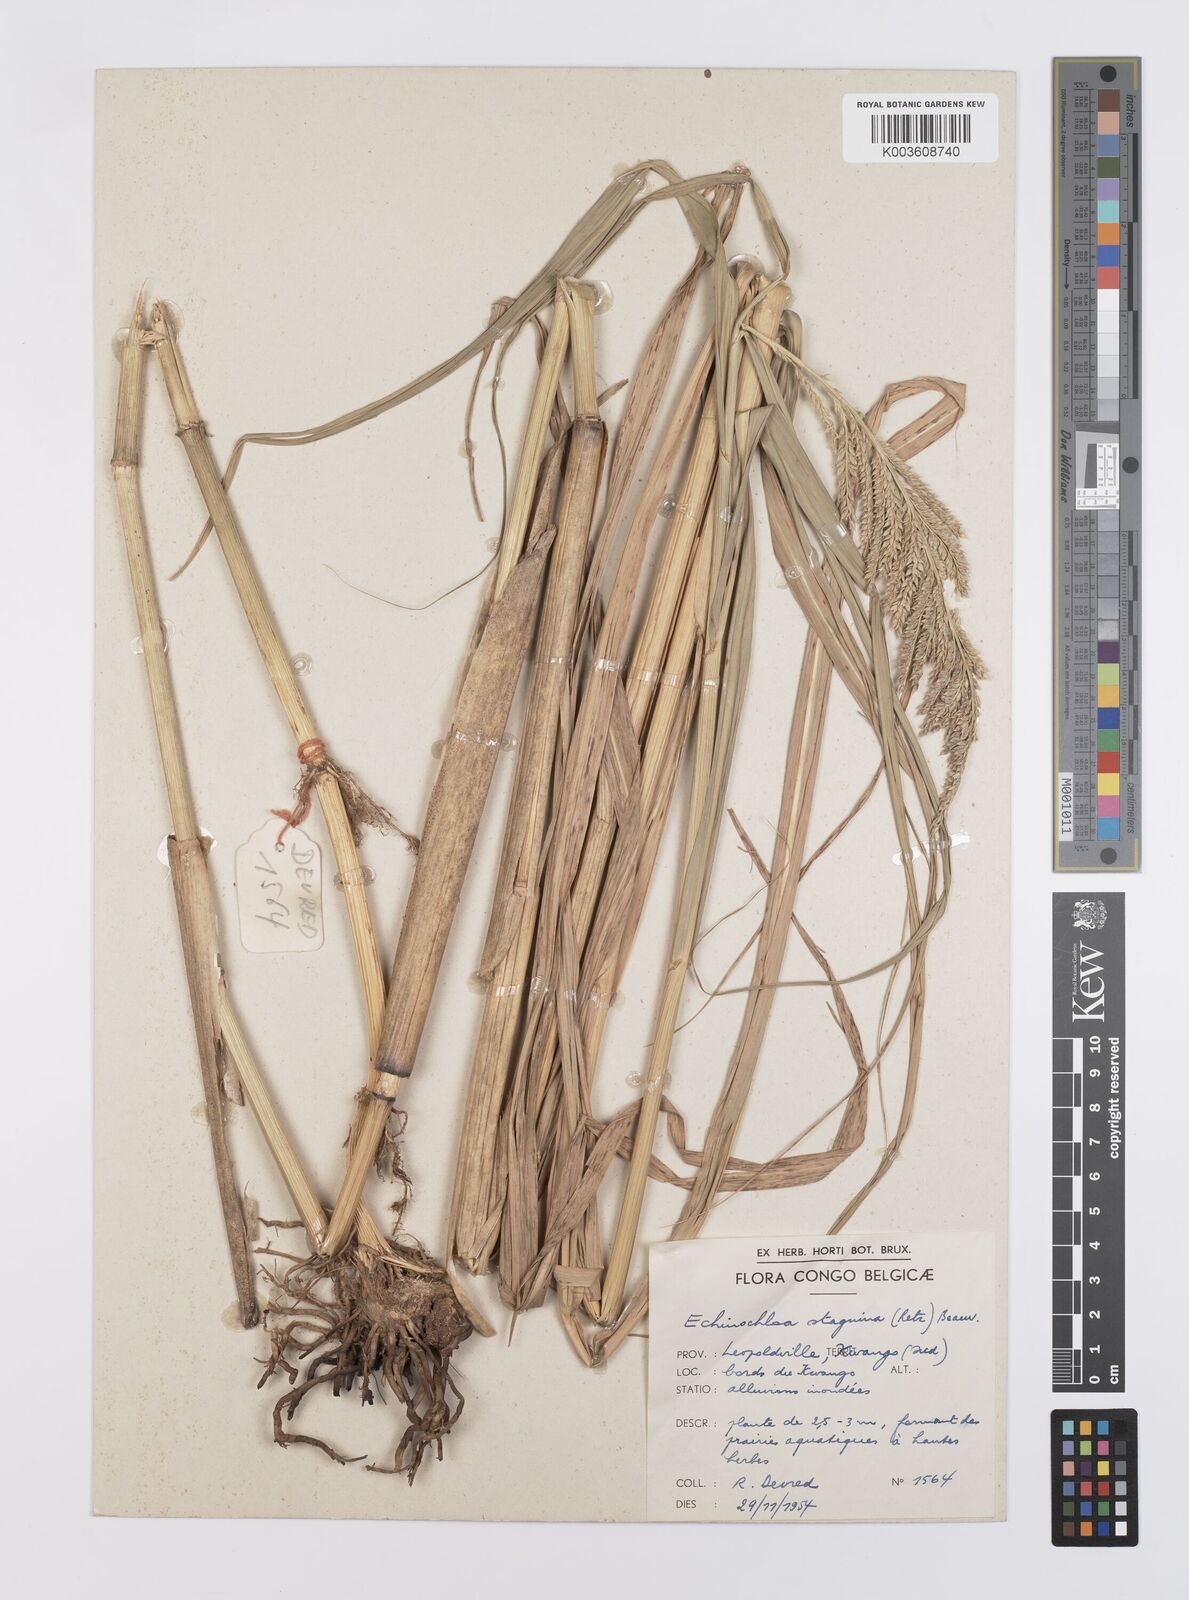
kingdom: Plantae
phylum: Tracheophyta
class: Liliopsida
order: Poales
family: Poaceae
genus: Echinochloa
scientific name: Echinochloa pyramidalis
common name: Antelope grass
